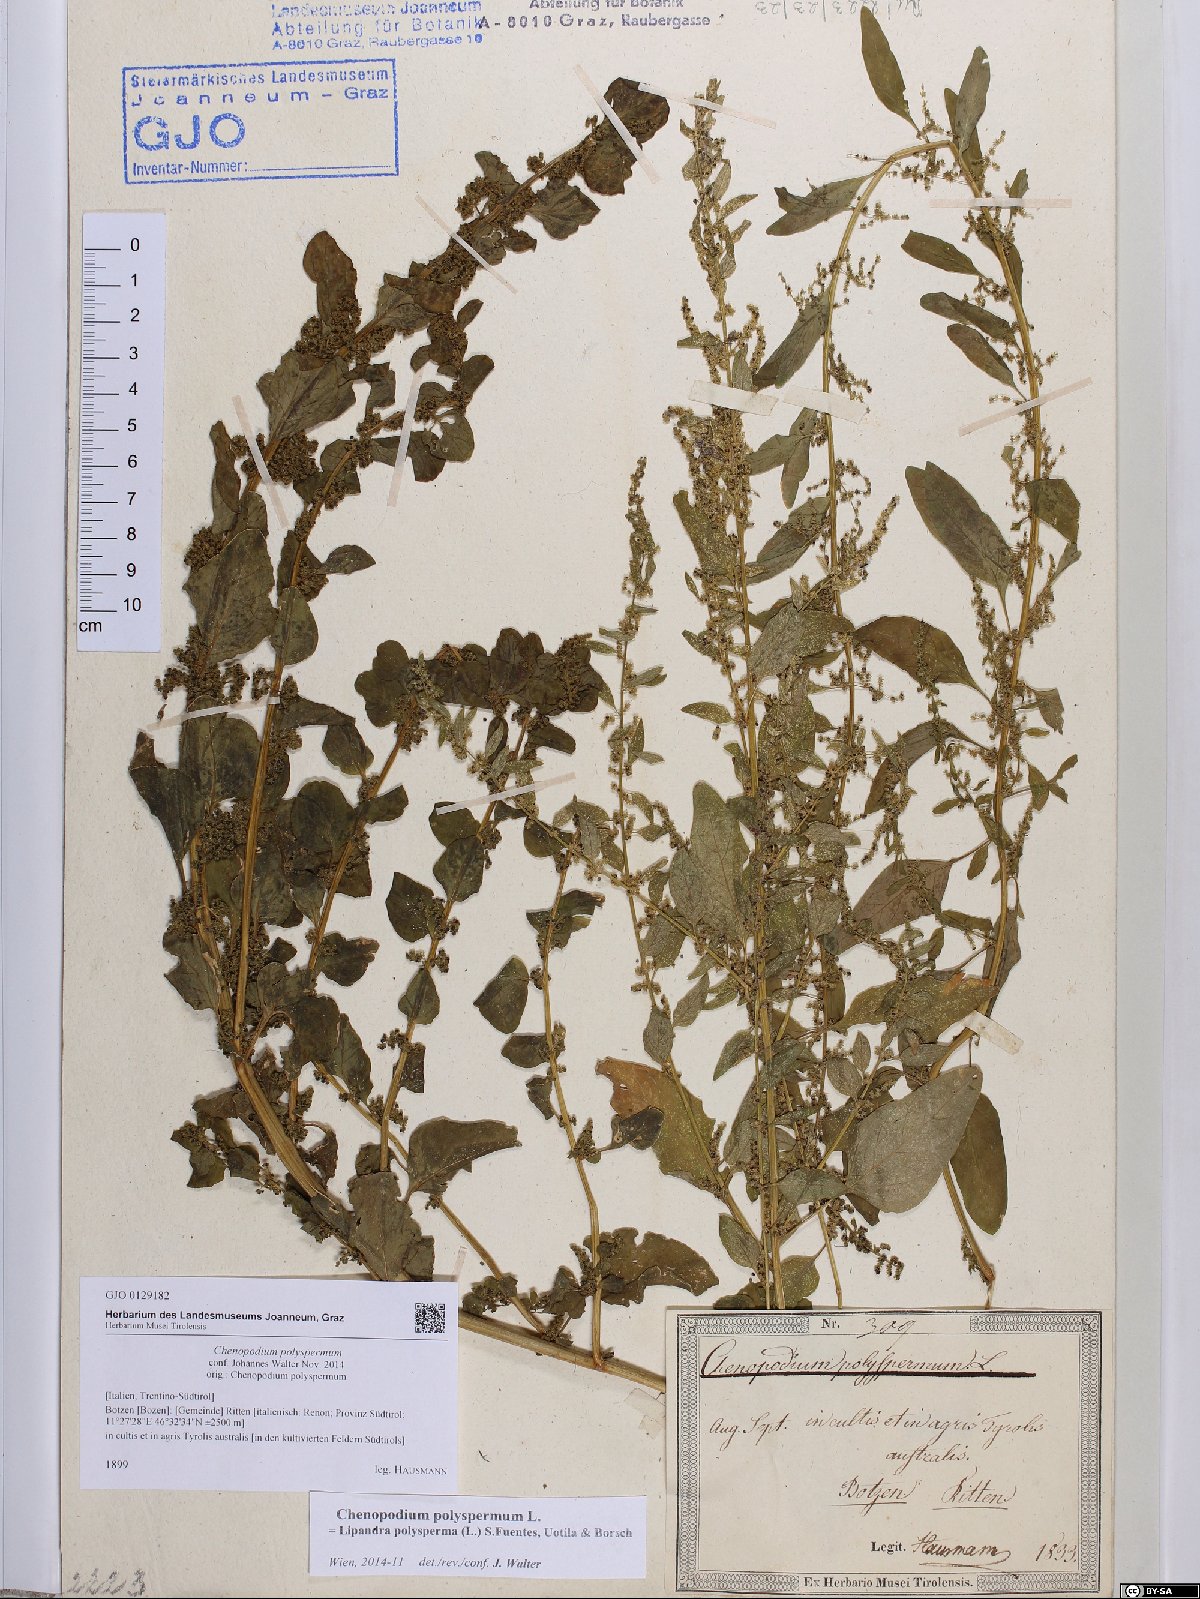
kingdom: Plantae
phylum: Tracheophyta
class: Magnoliopsida
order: Caryophyllales
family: Amaranthaceae
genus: Lipandra
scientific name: Lipandra polysperma
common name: Many-seed goosefoot
